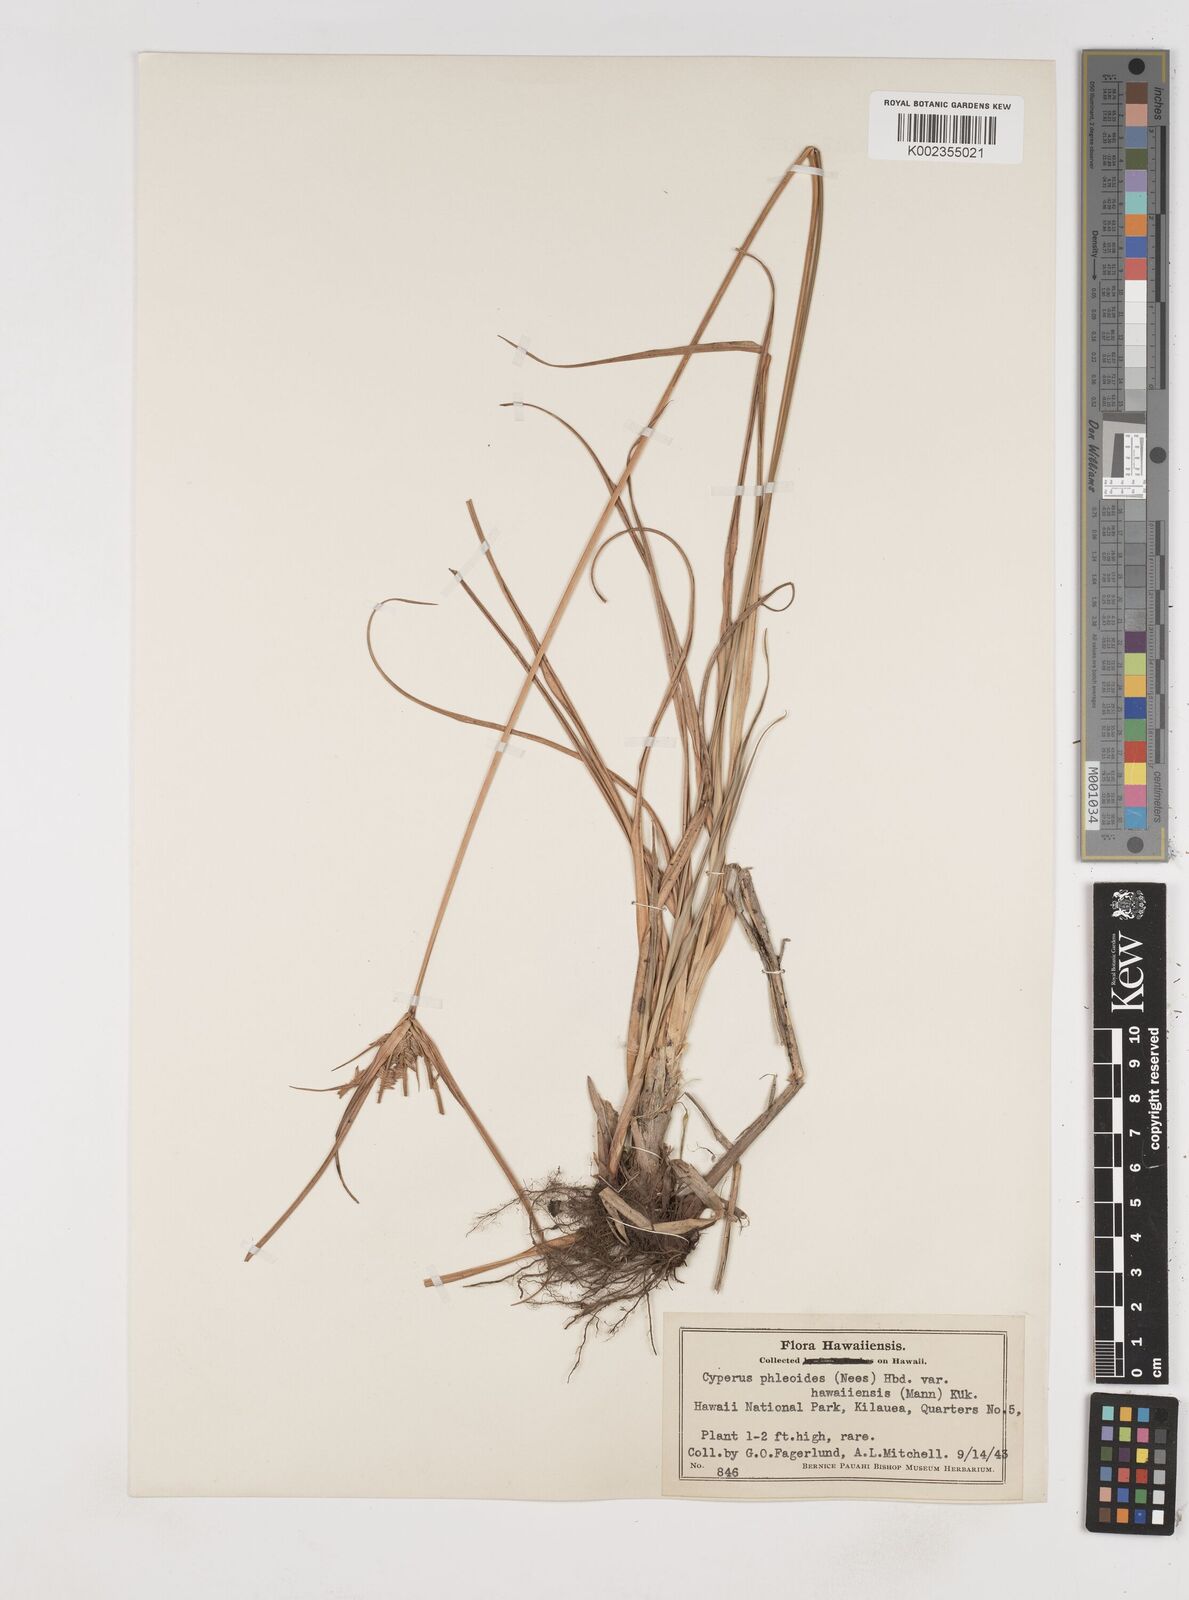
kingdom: Plantae
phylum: Tracheophyta
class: Liliopsida
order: Poales
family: Cyperaceae
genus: Cyperus
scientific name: Cyperus phleoides
